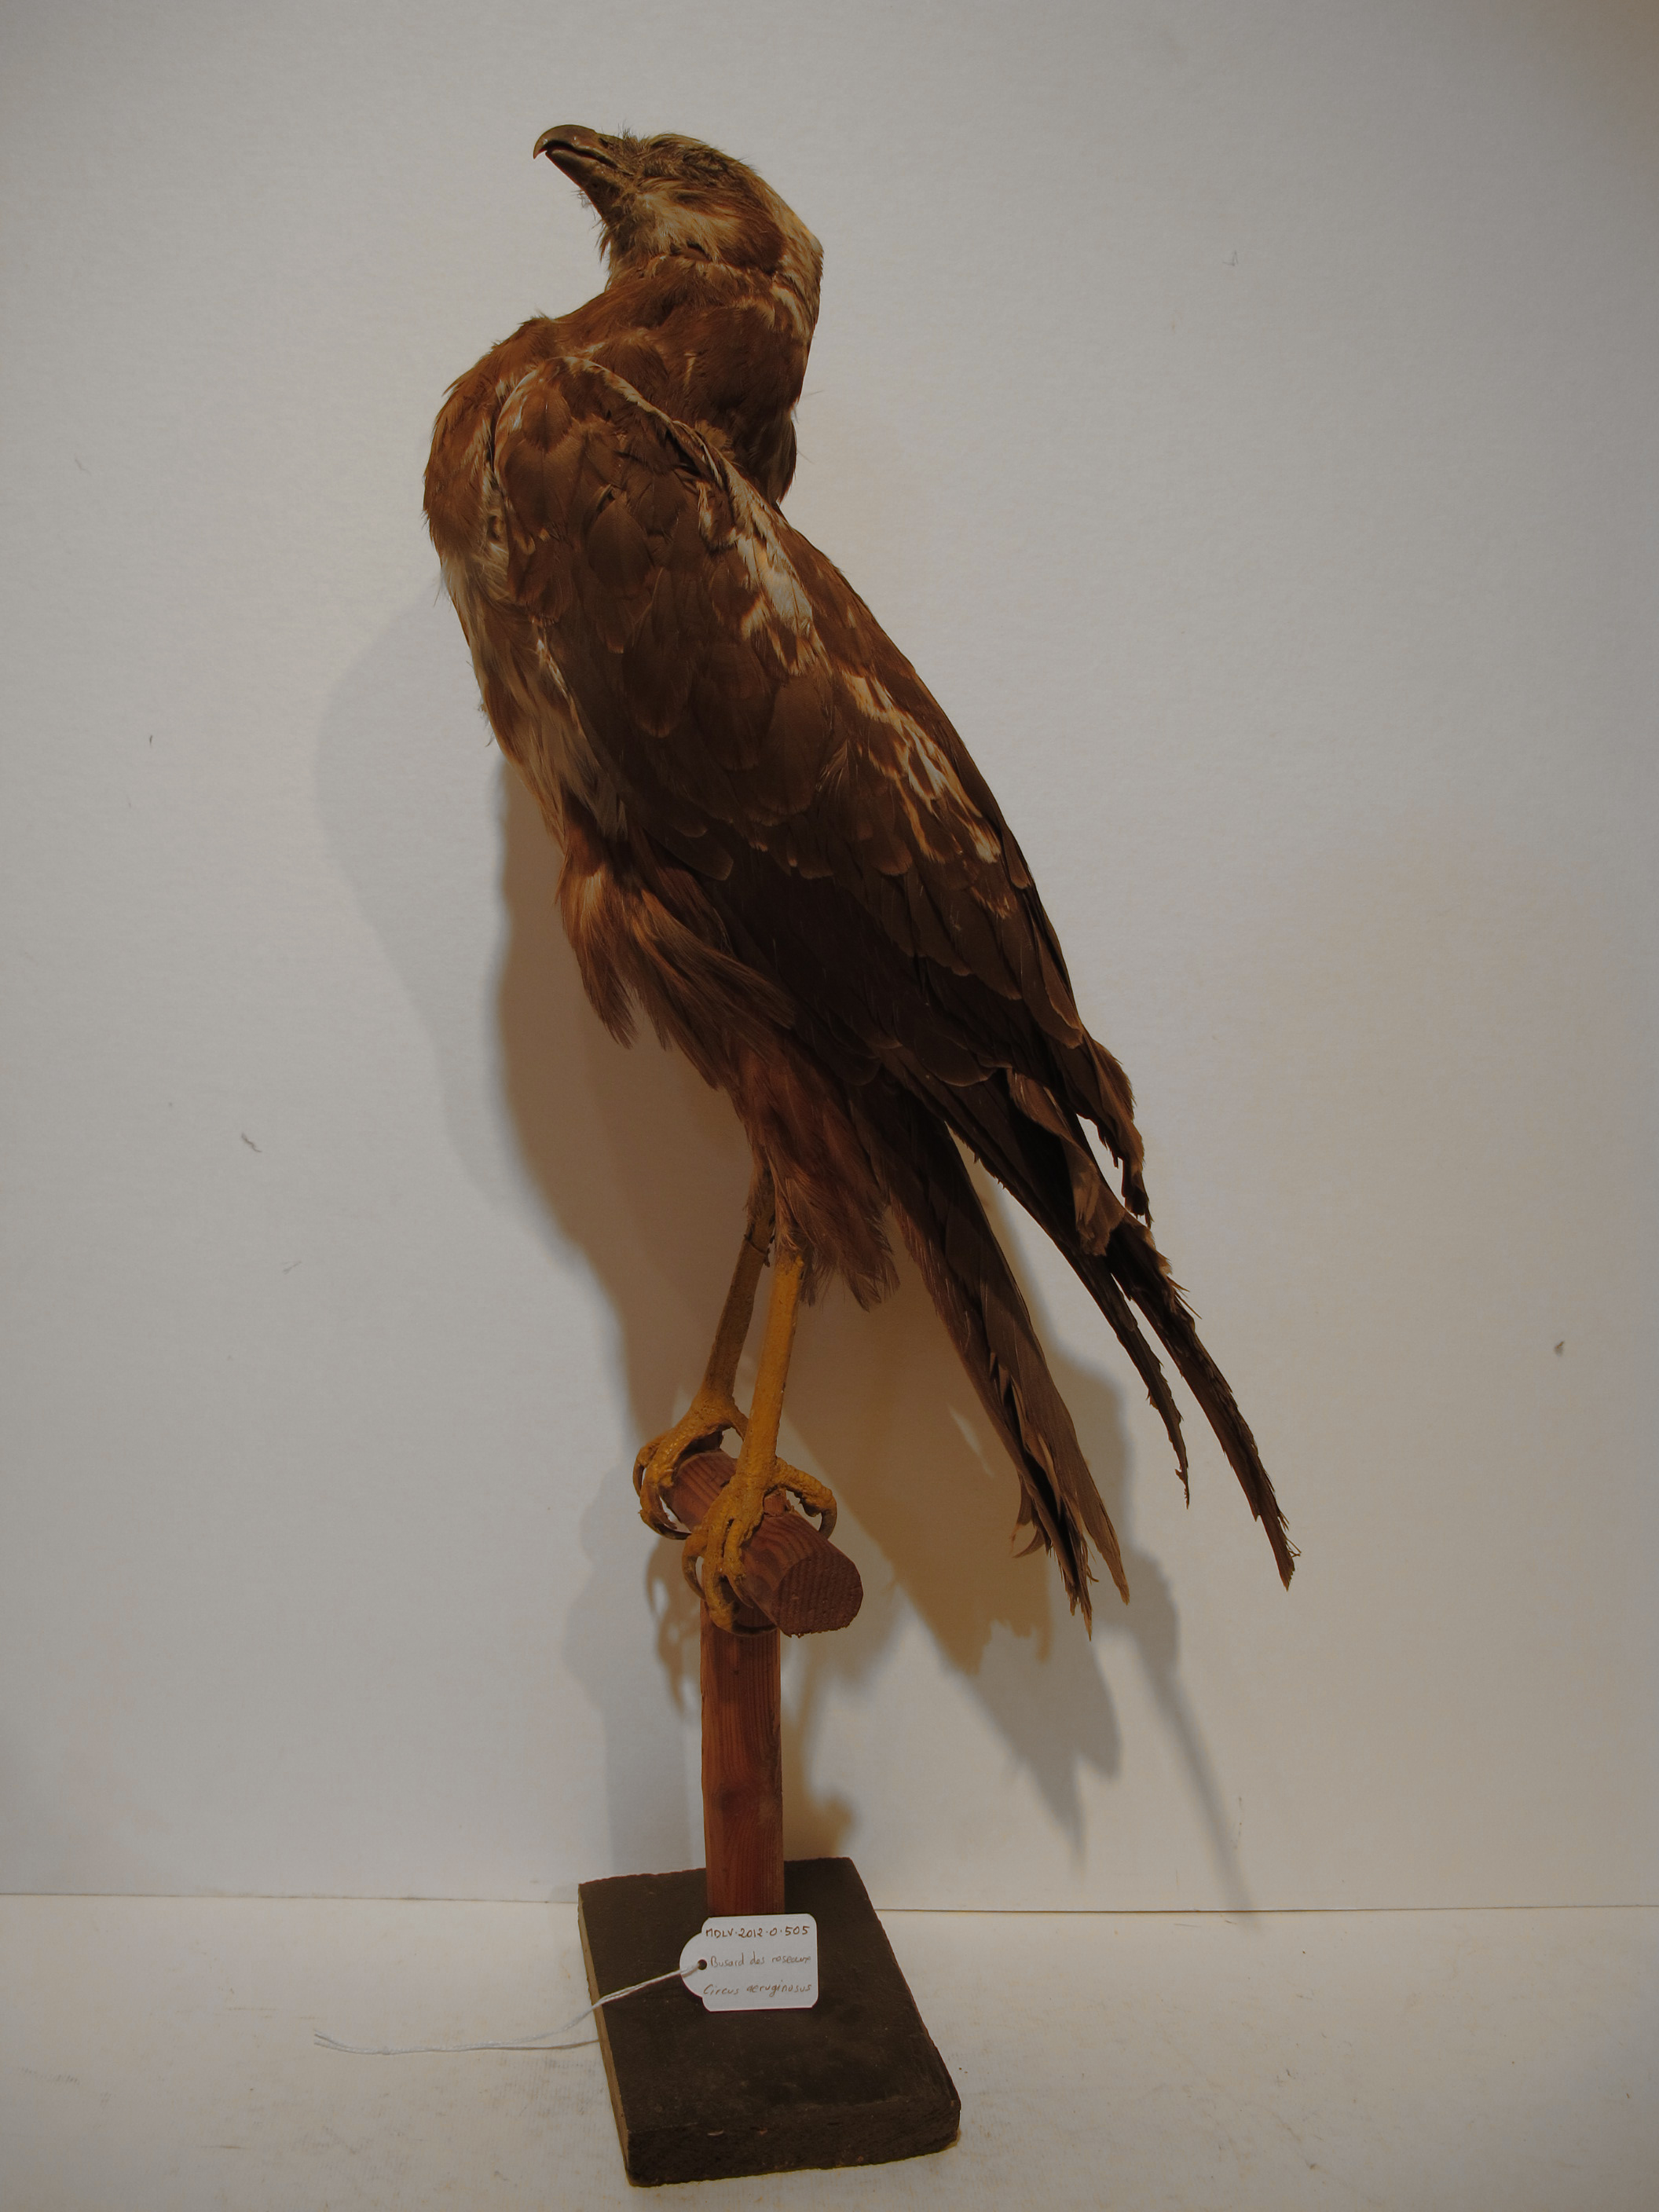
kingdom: Animalia
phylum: Chordata
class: Aves
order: Accipitriformes
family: Accipitridae
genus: Circus
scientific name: Circus aeruginosus
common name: Western Marsh-harrier
